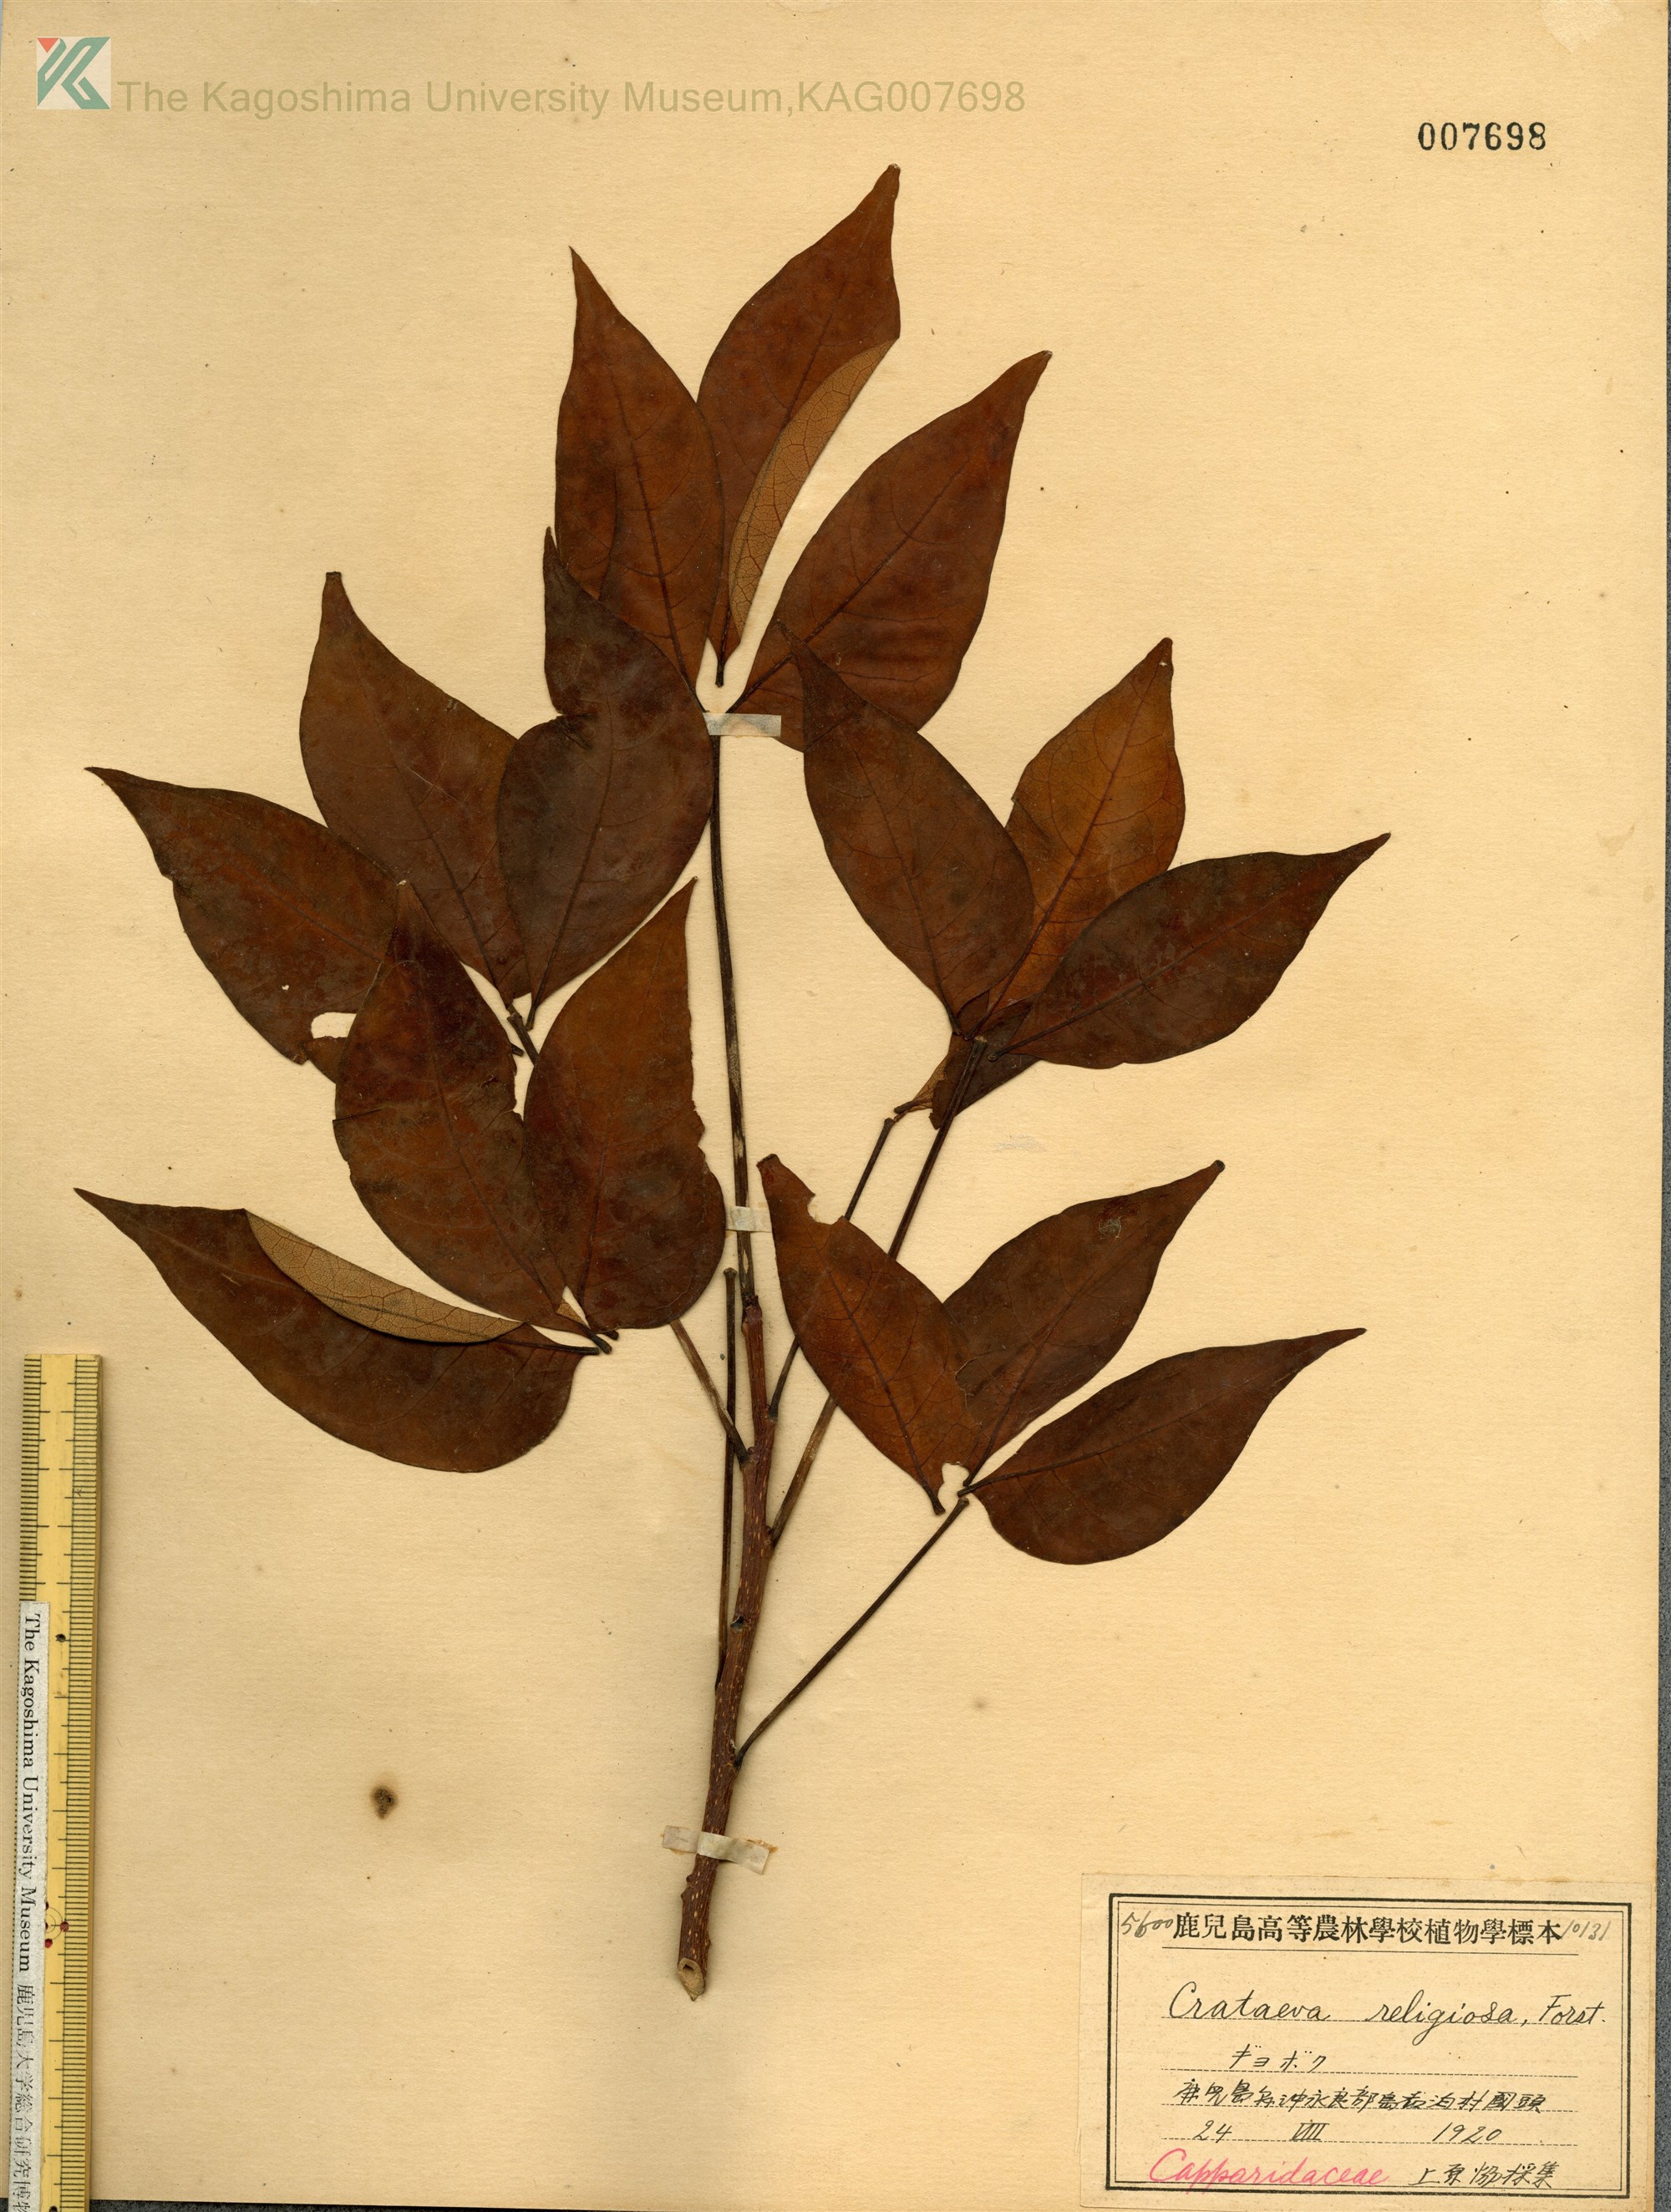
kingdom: Plantae
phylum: Tracheophyta
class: Magnoliopsida
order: Brassicales
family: Capparaceae
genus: Crateva
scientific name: Crateva formosensis
